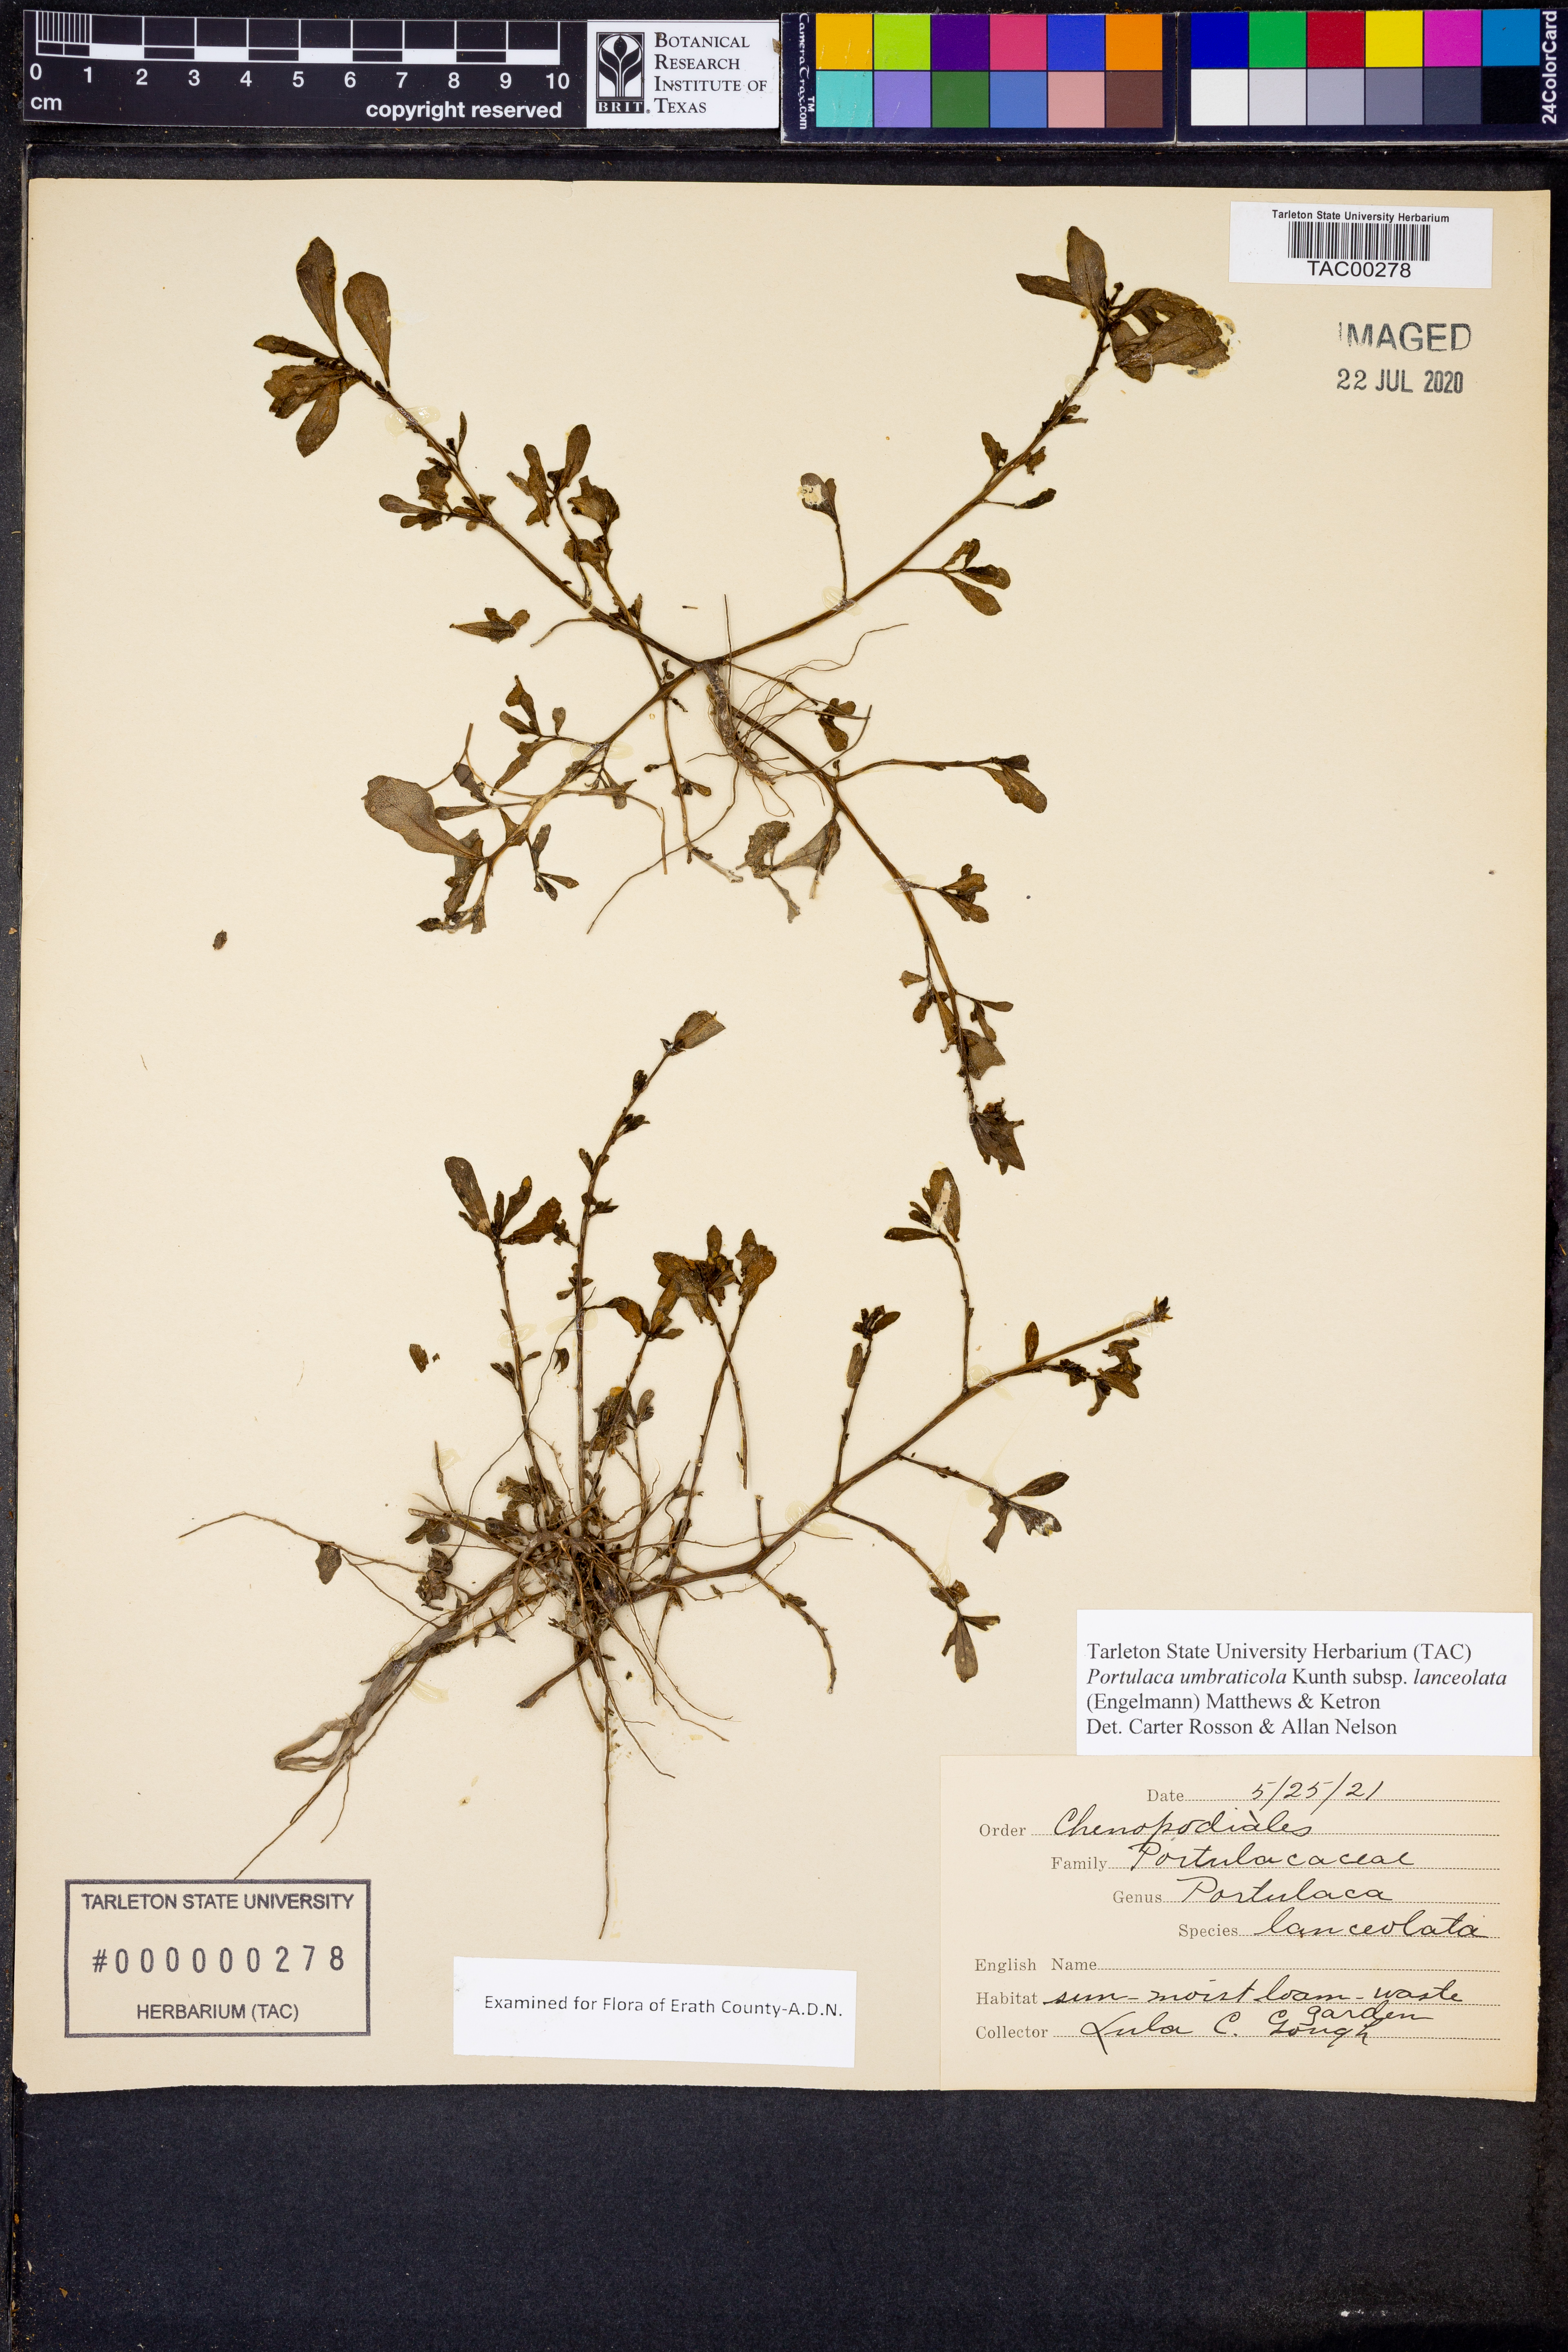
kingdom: Plantae
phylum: Tracheophyta
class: Magnoliopsida
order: Caryophyllales
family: Portulacaceae
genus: Portulaca
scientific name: Portulaca umbraticola
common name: Wingpod purslane
